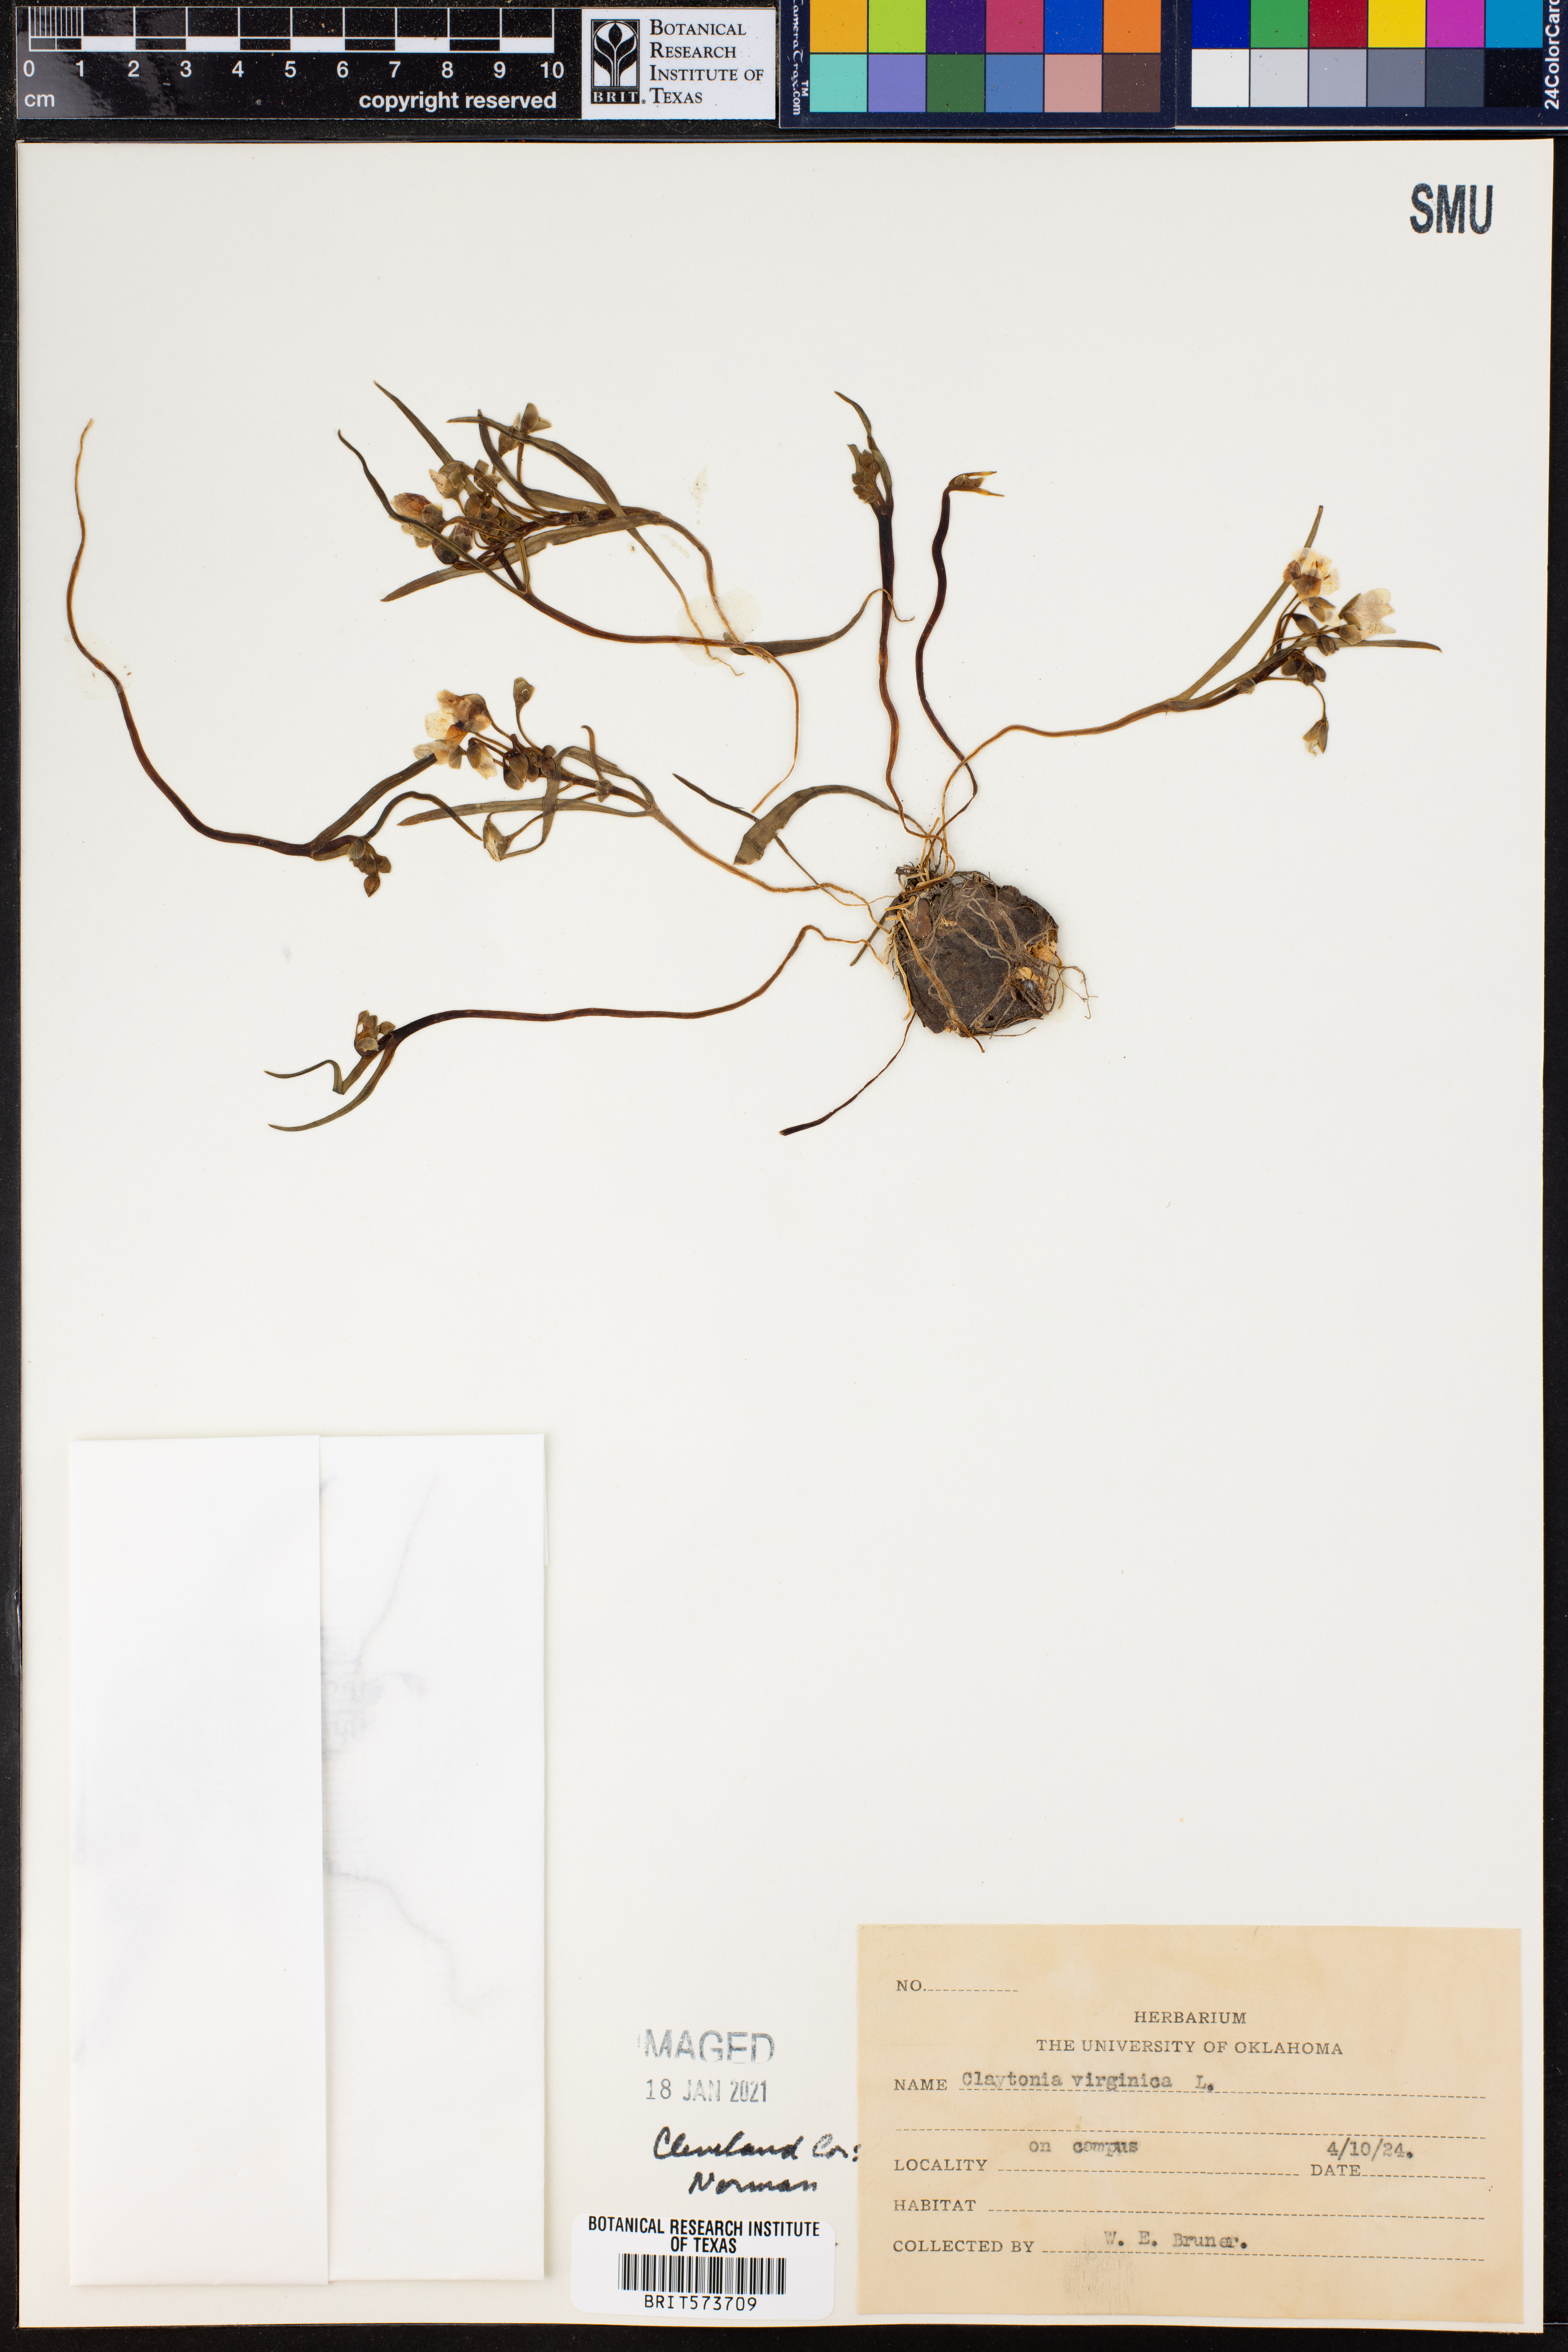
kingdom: Plantae
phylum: Tracheophyta
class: Magnoliopsida
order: Caryophyllales
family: Montiaceae
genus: Claytonia
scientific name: Claytonia virginica
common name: Virginia springbeauty
